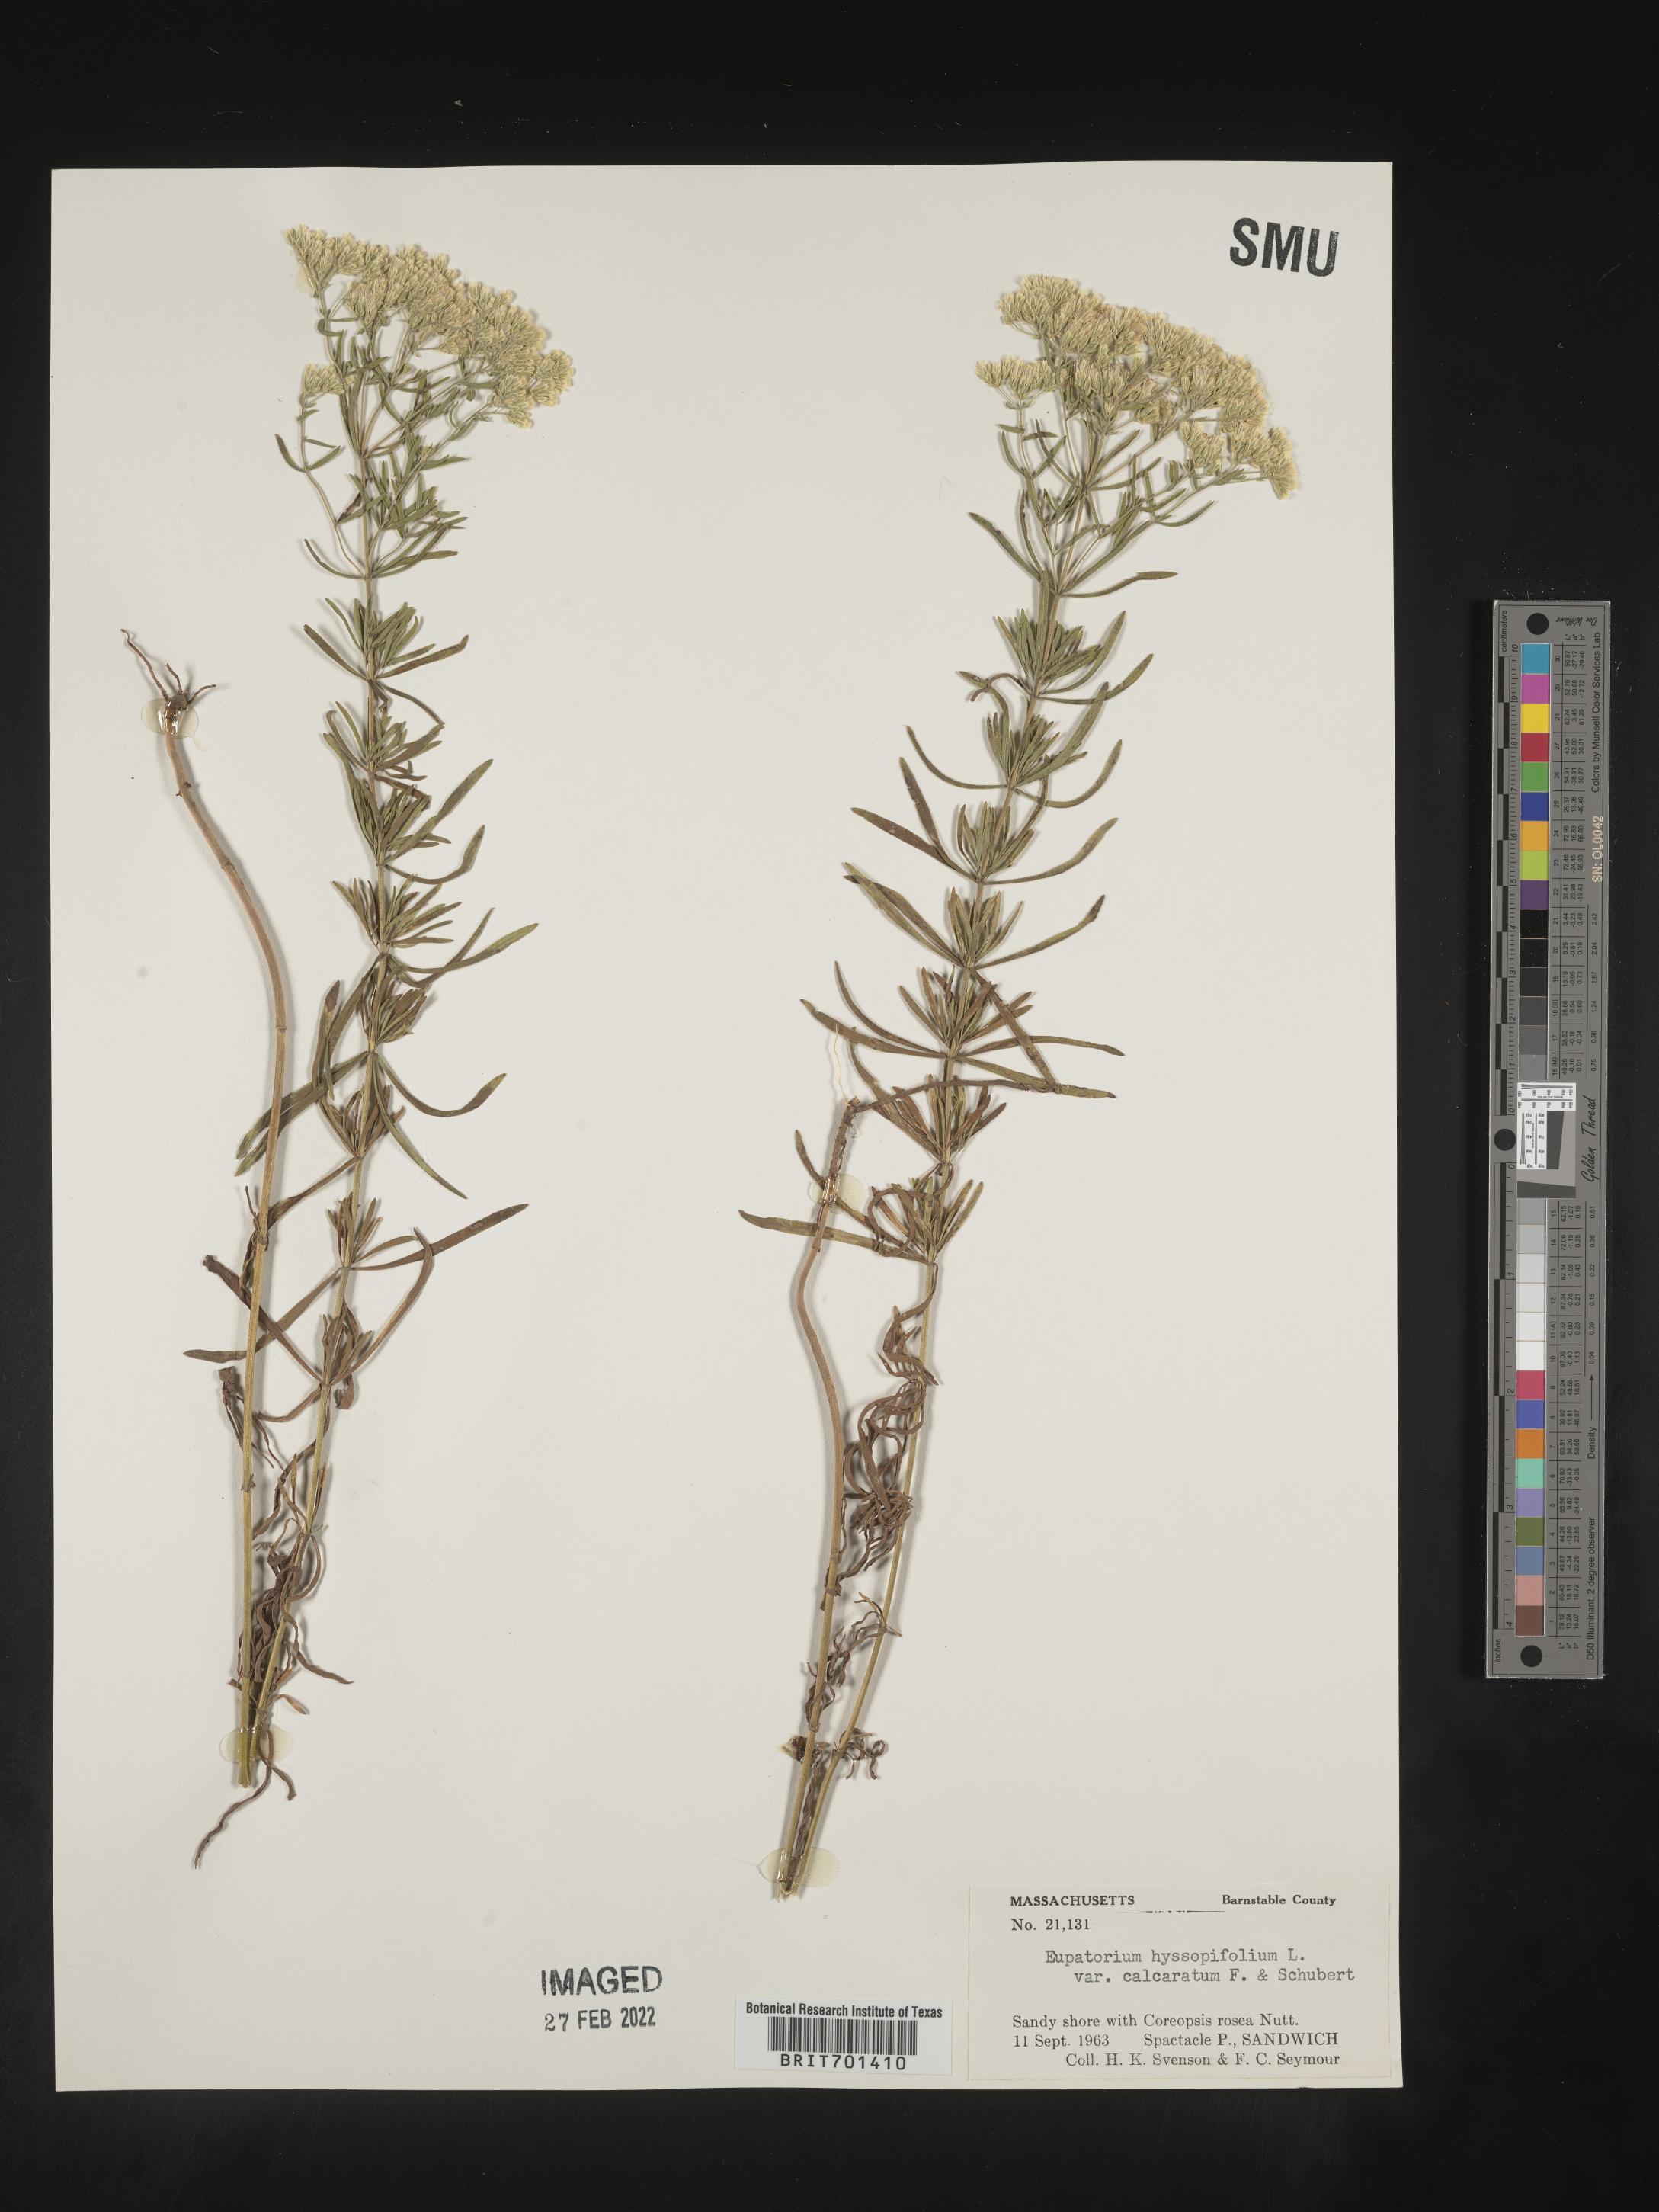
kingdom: Plantae
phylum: Tracheophyta
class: Magnoliopsida
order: Asterales
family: Asteraceae
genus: Eupatorium
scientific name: Eupatorium hyssopifolium
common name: Hyssop-leaf thoroughwort
